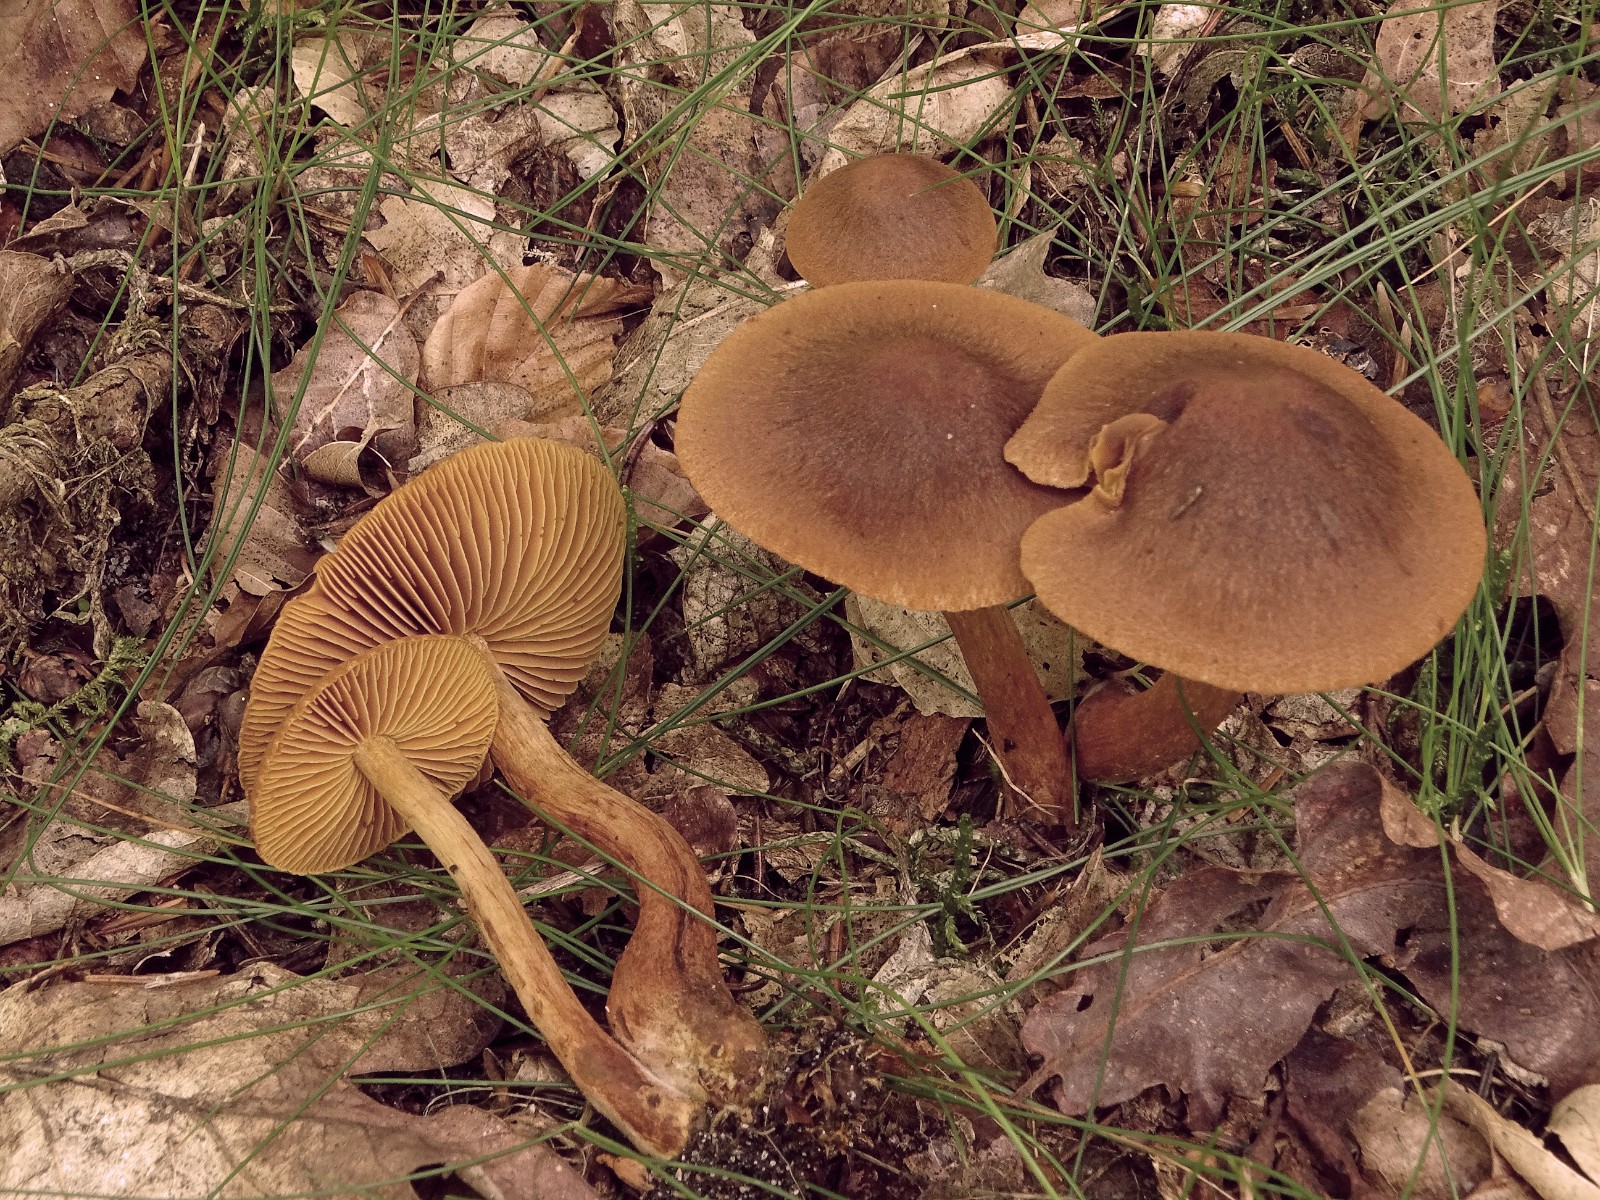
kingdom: Fungi
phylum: Basidiomycota
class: Agaricomycetes
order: Agaricales
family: Cortinariaceae
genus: Cortinarius
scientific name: Cortinarius
